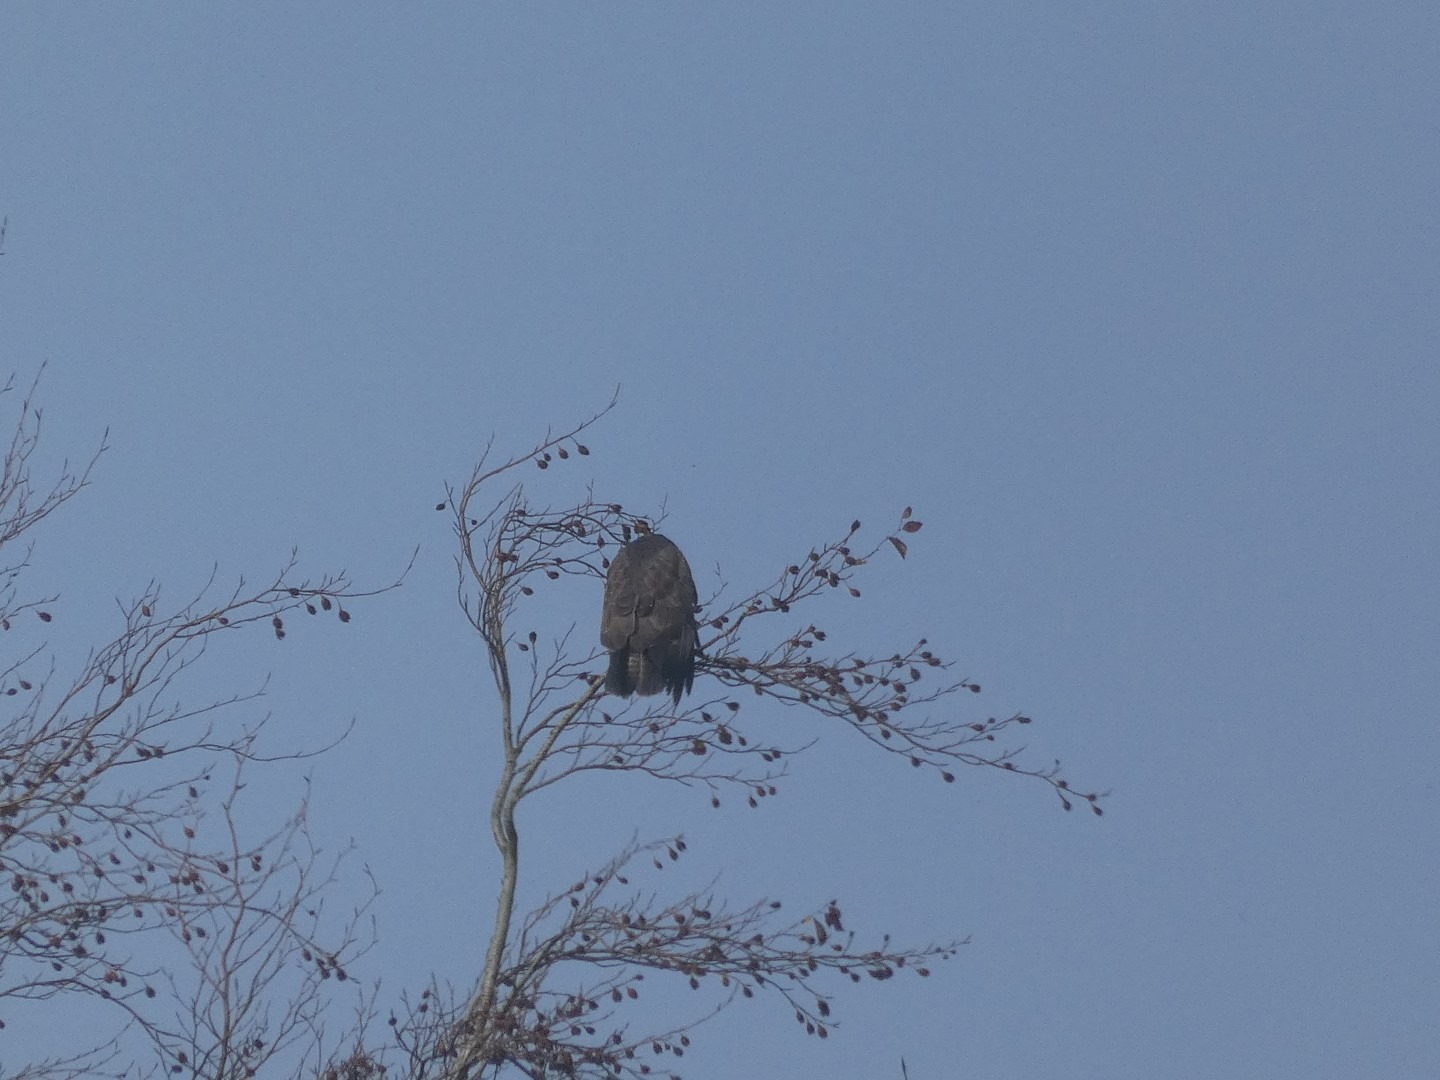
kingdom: Animalia
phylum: Chordata
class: Aves
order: Accipitriformes
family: Accipitridae
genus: Buteo
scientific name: Buteo buteo
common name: Musvåge
